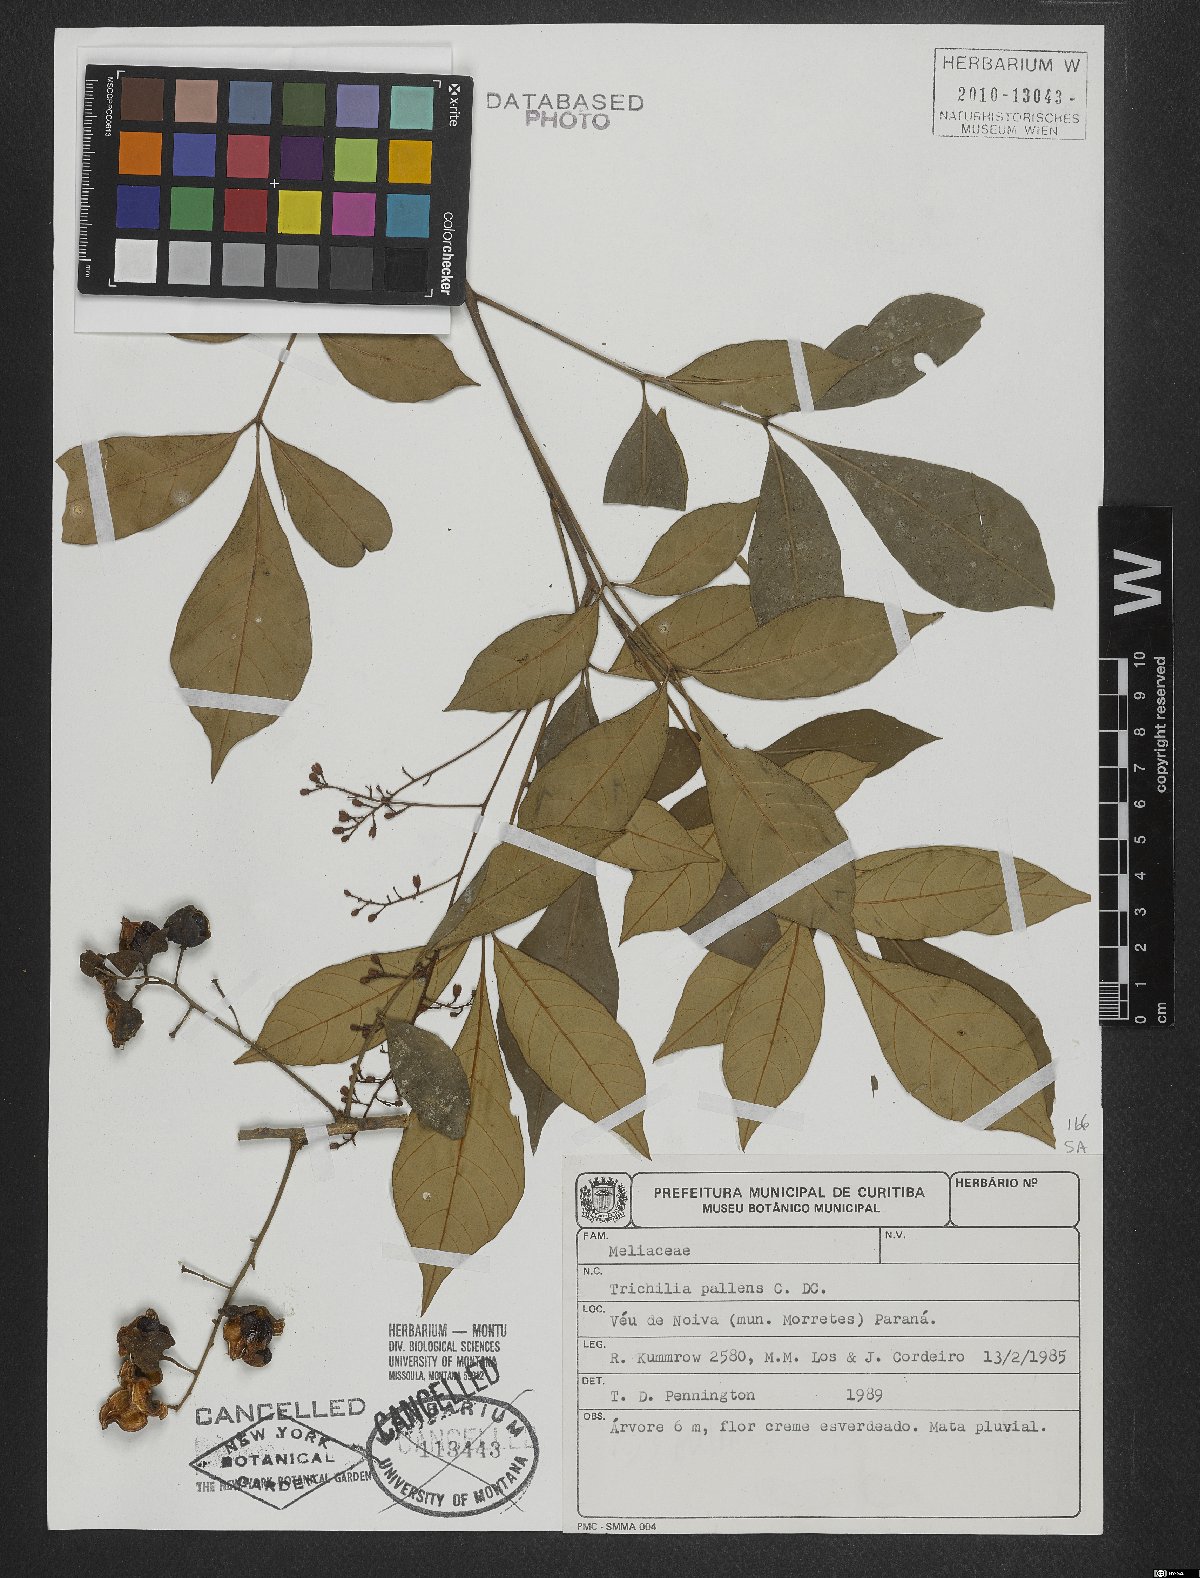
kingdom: Plantae
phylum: Tracheophyta
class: Magnoliopsida
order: Sapindales
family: Meliaceae
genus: Trichilia
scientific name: Trichilia pallens
